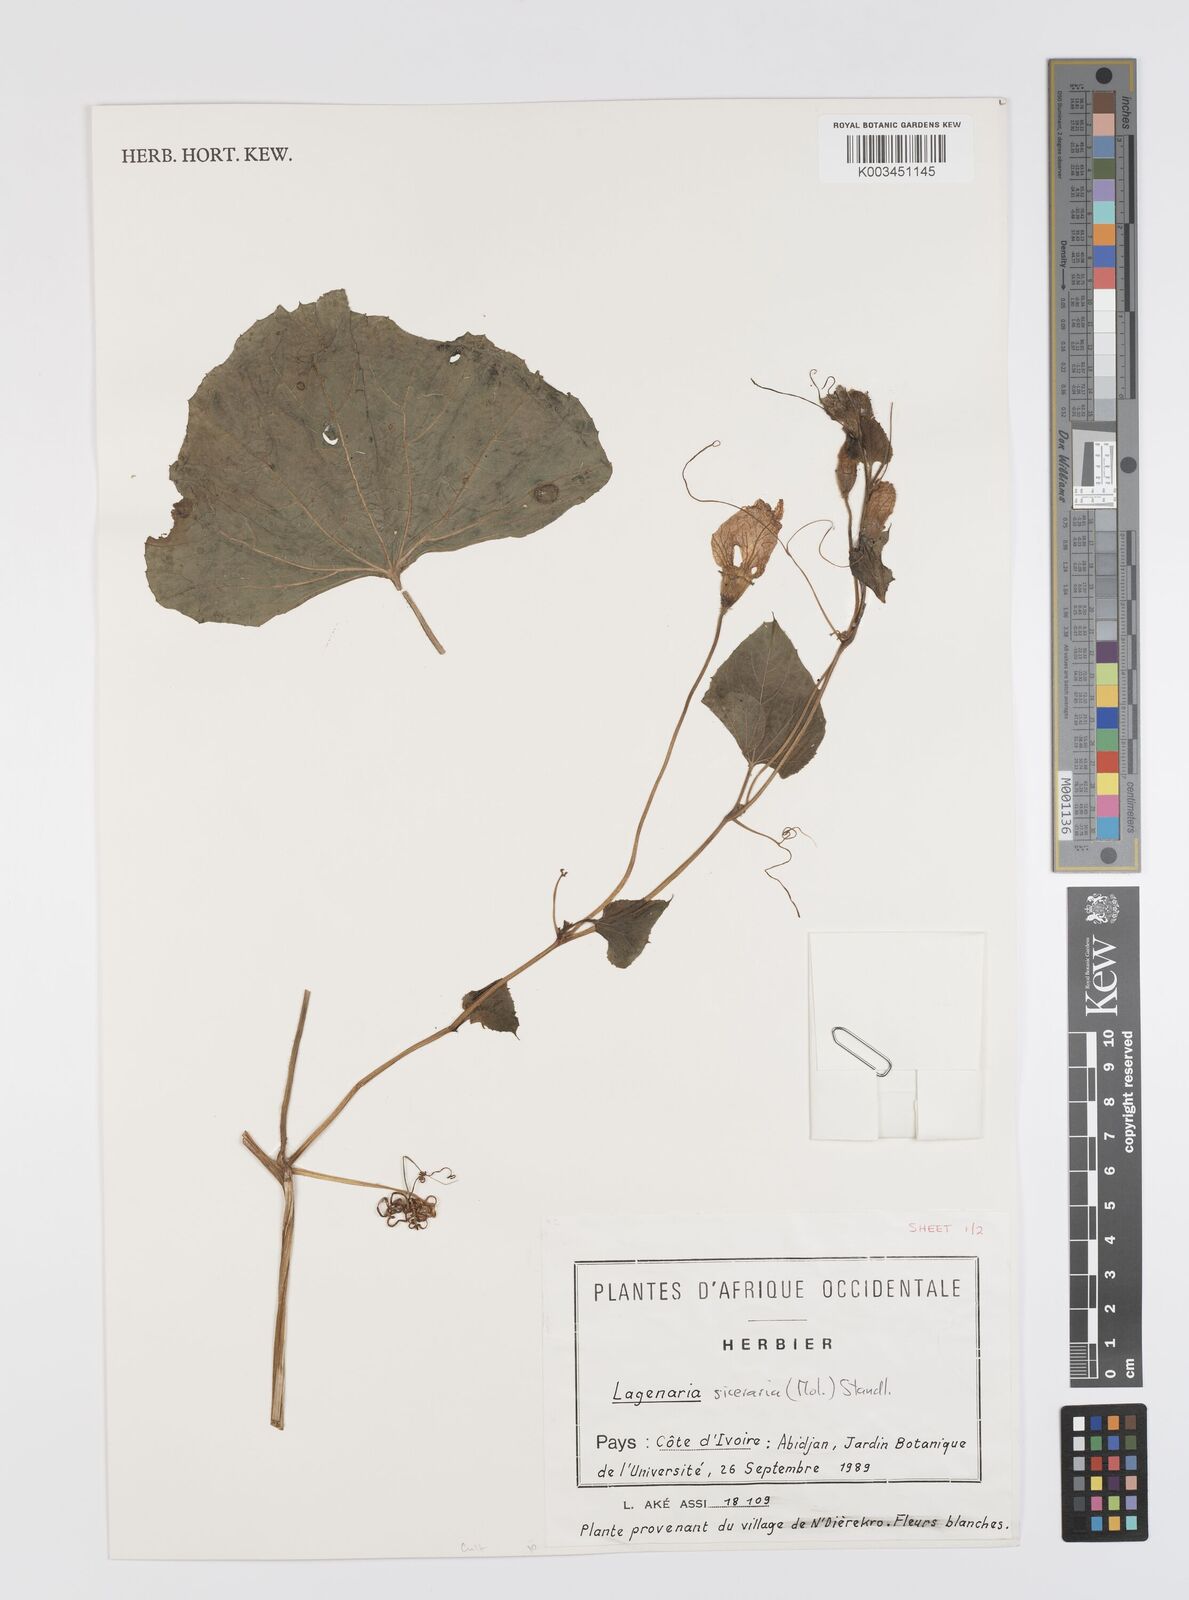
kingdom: Plantae
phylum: Tracheophyta
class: Magnoliopsida
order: Cucurbitales
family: Cucurbitaceae
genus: Lagenaria
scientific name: Lagenaria siceraria
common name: Bottle gourd
